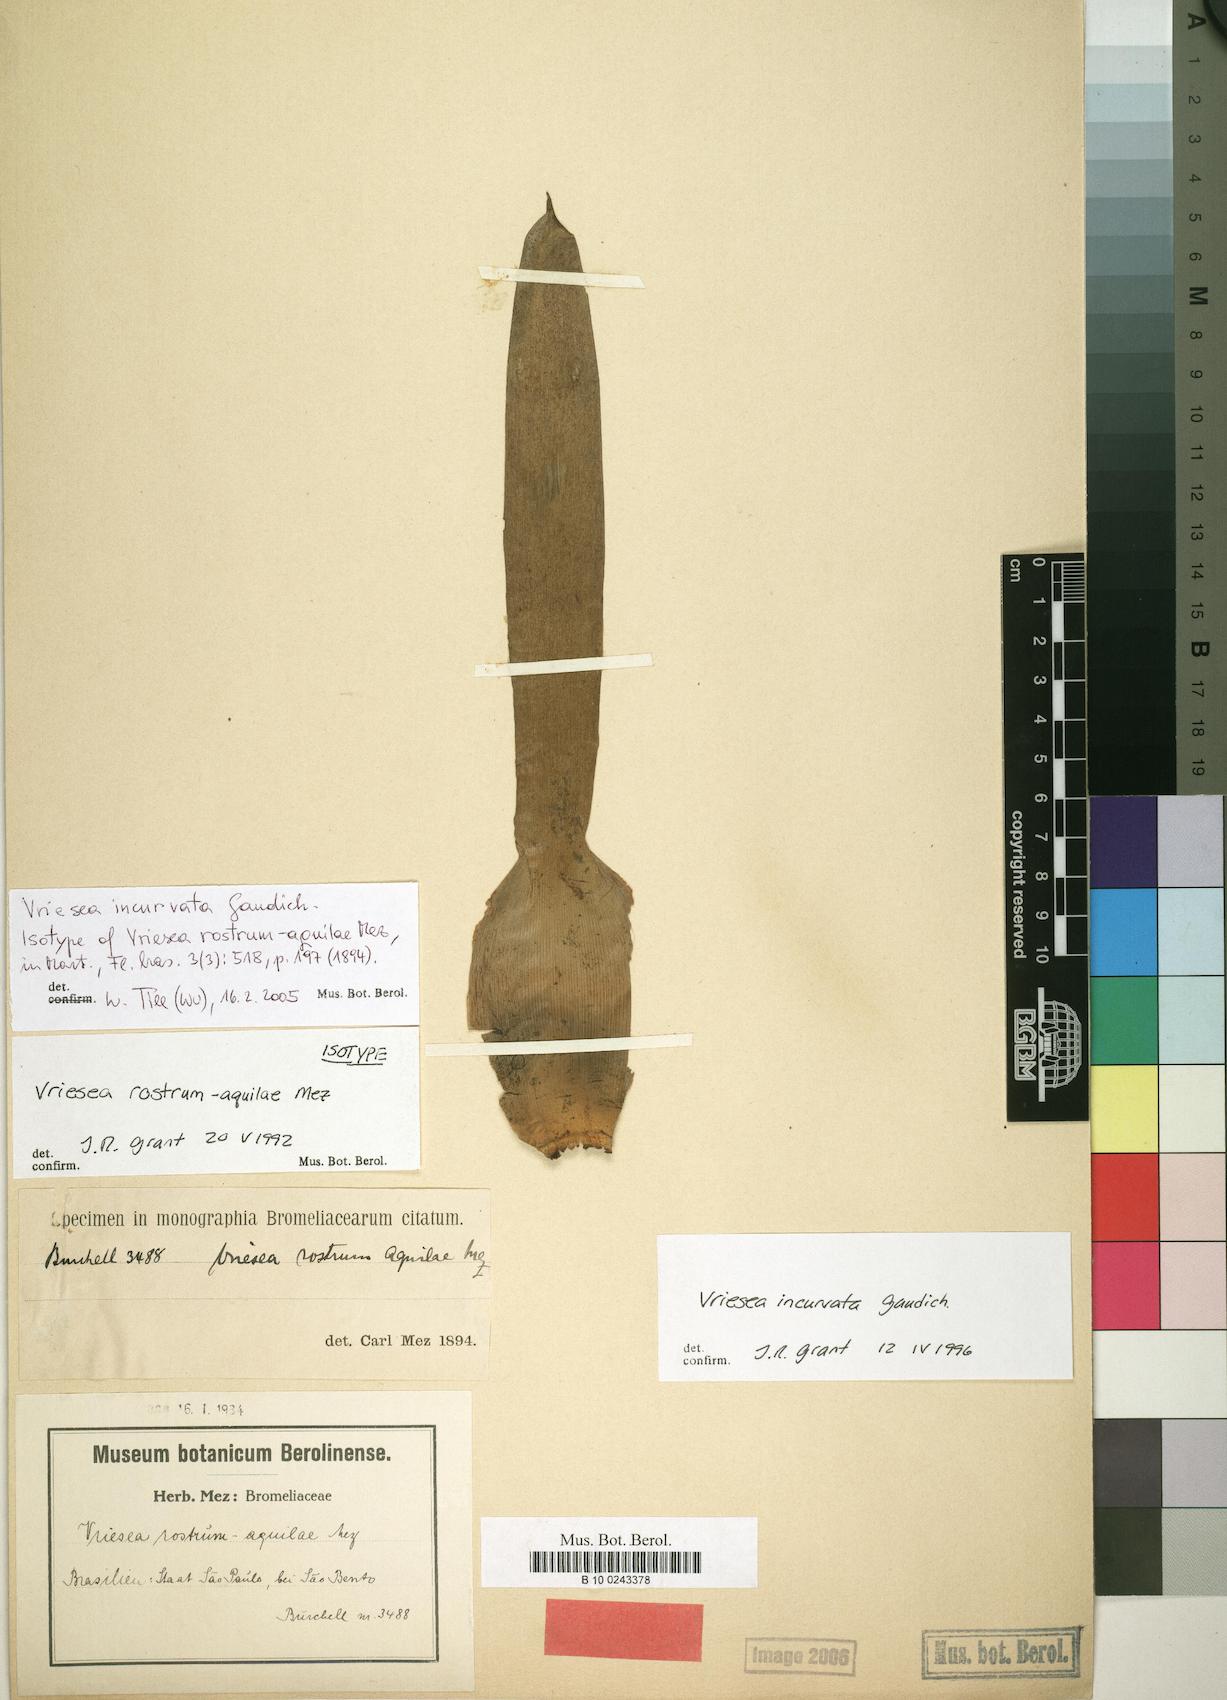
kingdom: Plantae
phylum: Tracheophyta
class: Liliopsida
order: Poales
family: Bromeliaceae
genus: Vriesea
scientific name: Vriesea incurvata
